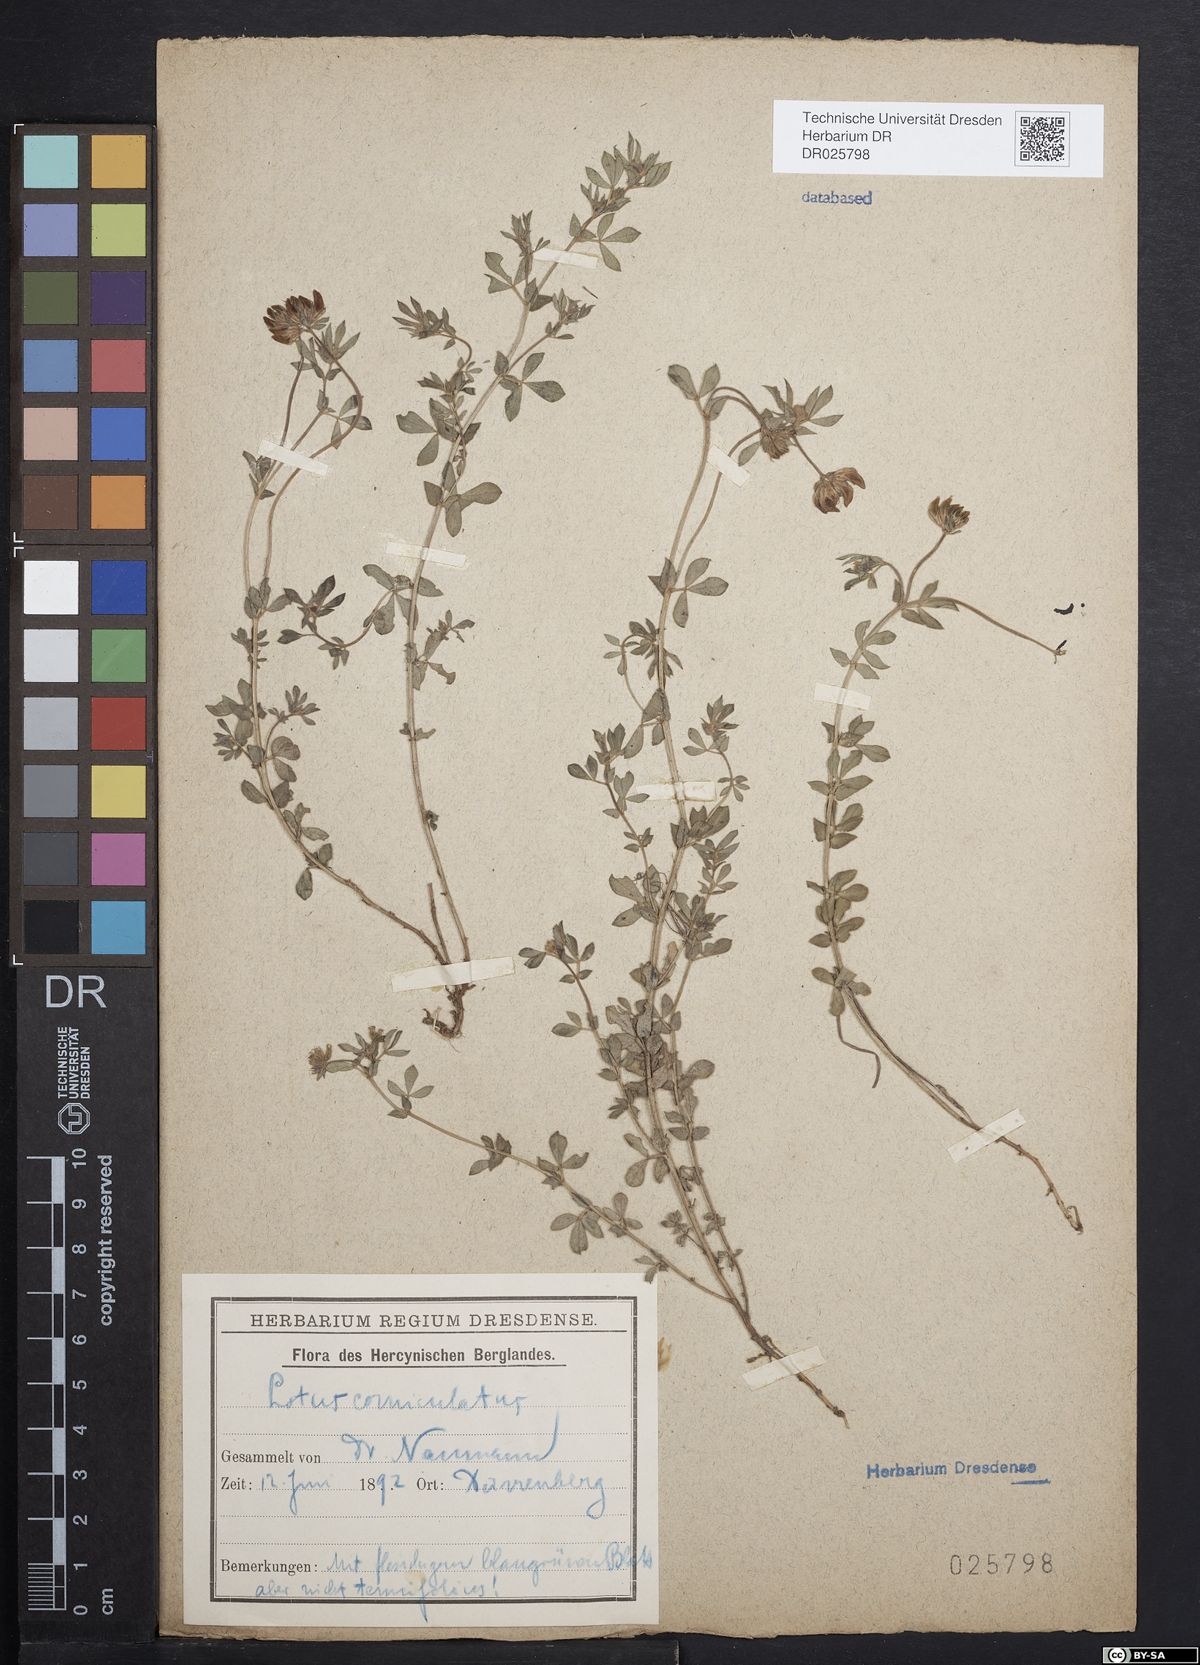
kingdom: Plantae
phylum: Tracheophyta
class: Magnoliopsida
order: Fabales
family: Fabaceae
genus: Lotus
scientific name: Lotus corniculatus
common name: Common bird's-foot-trefoil
